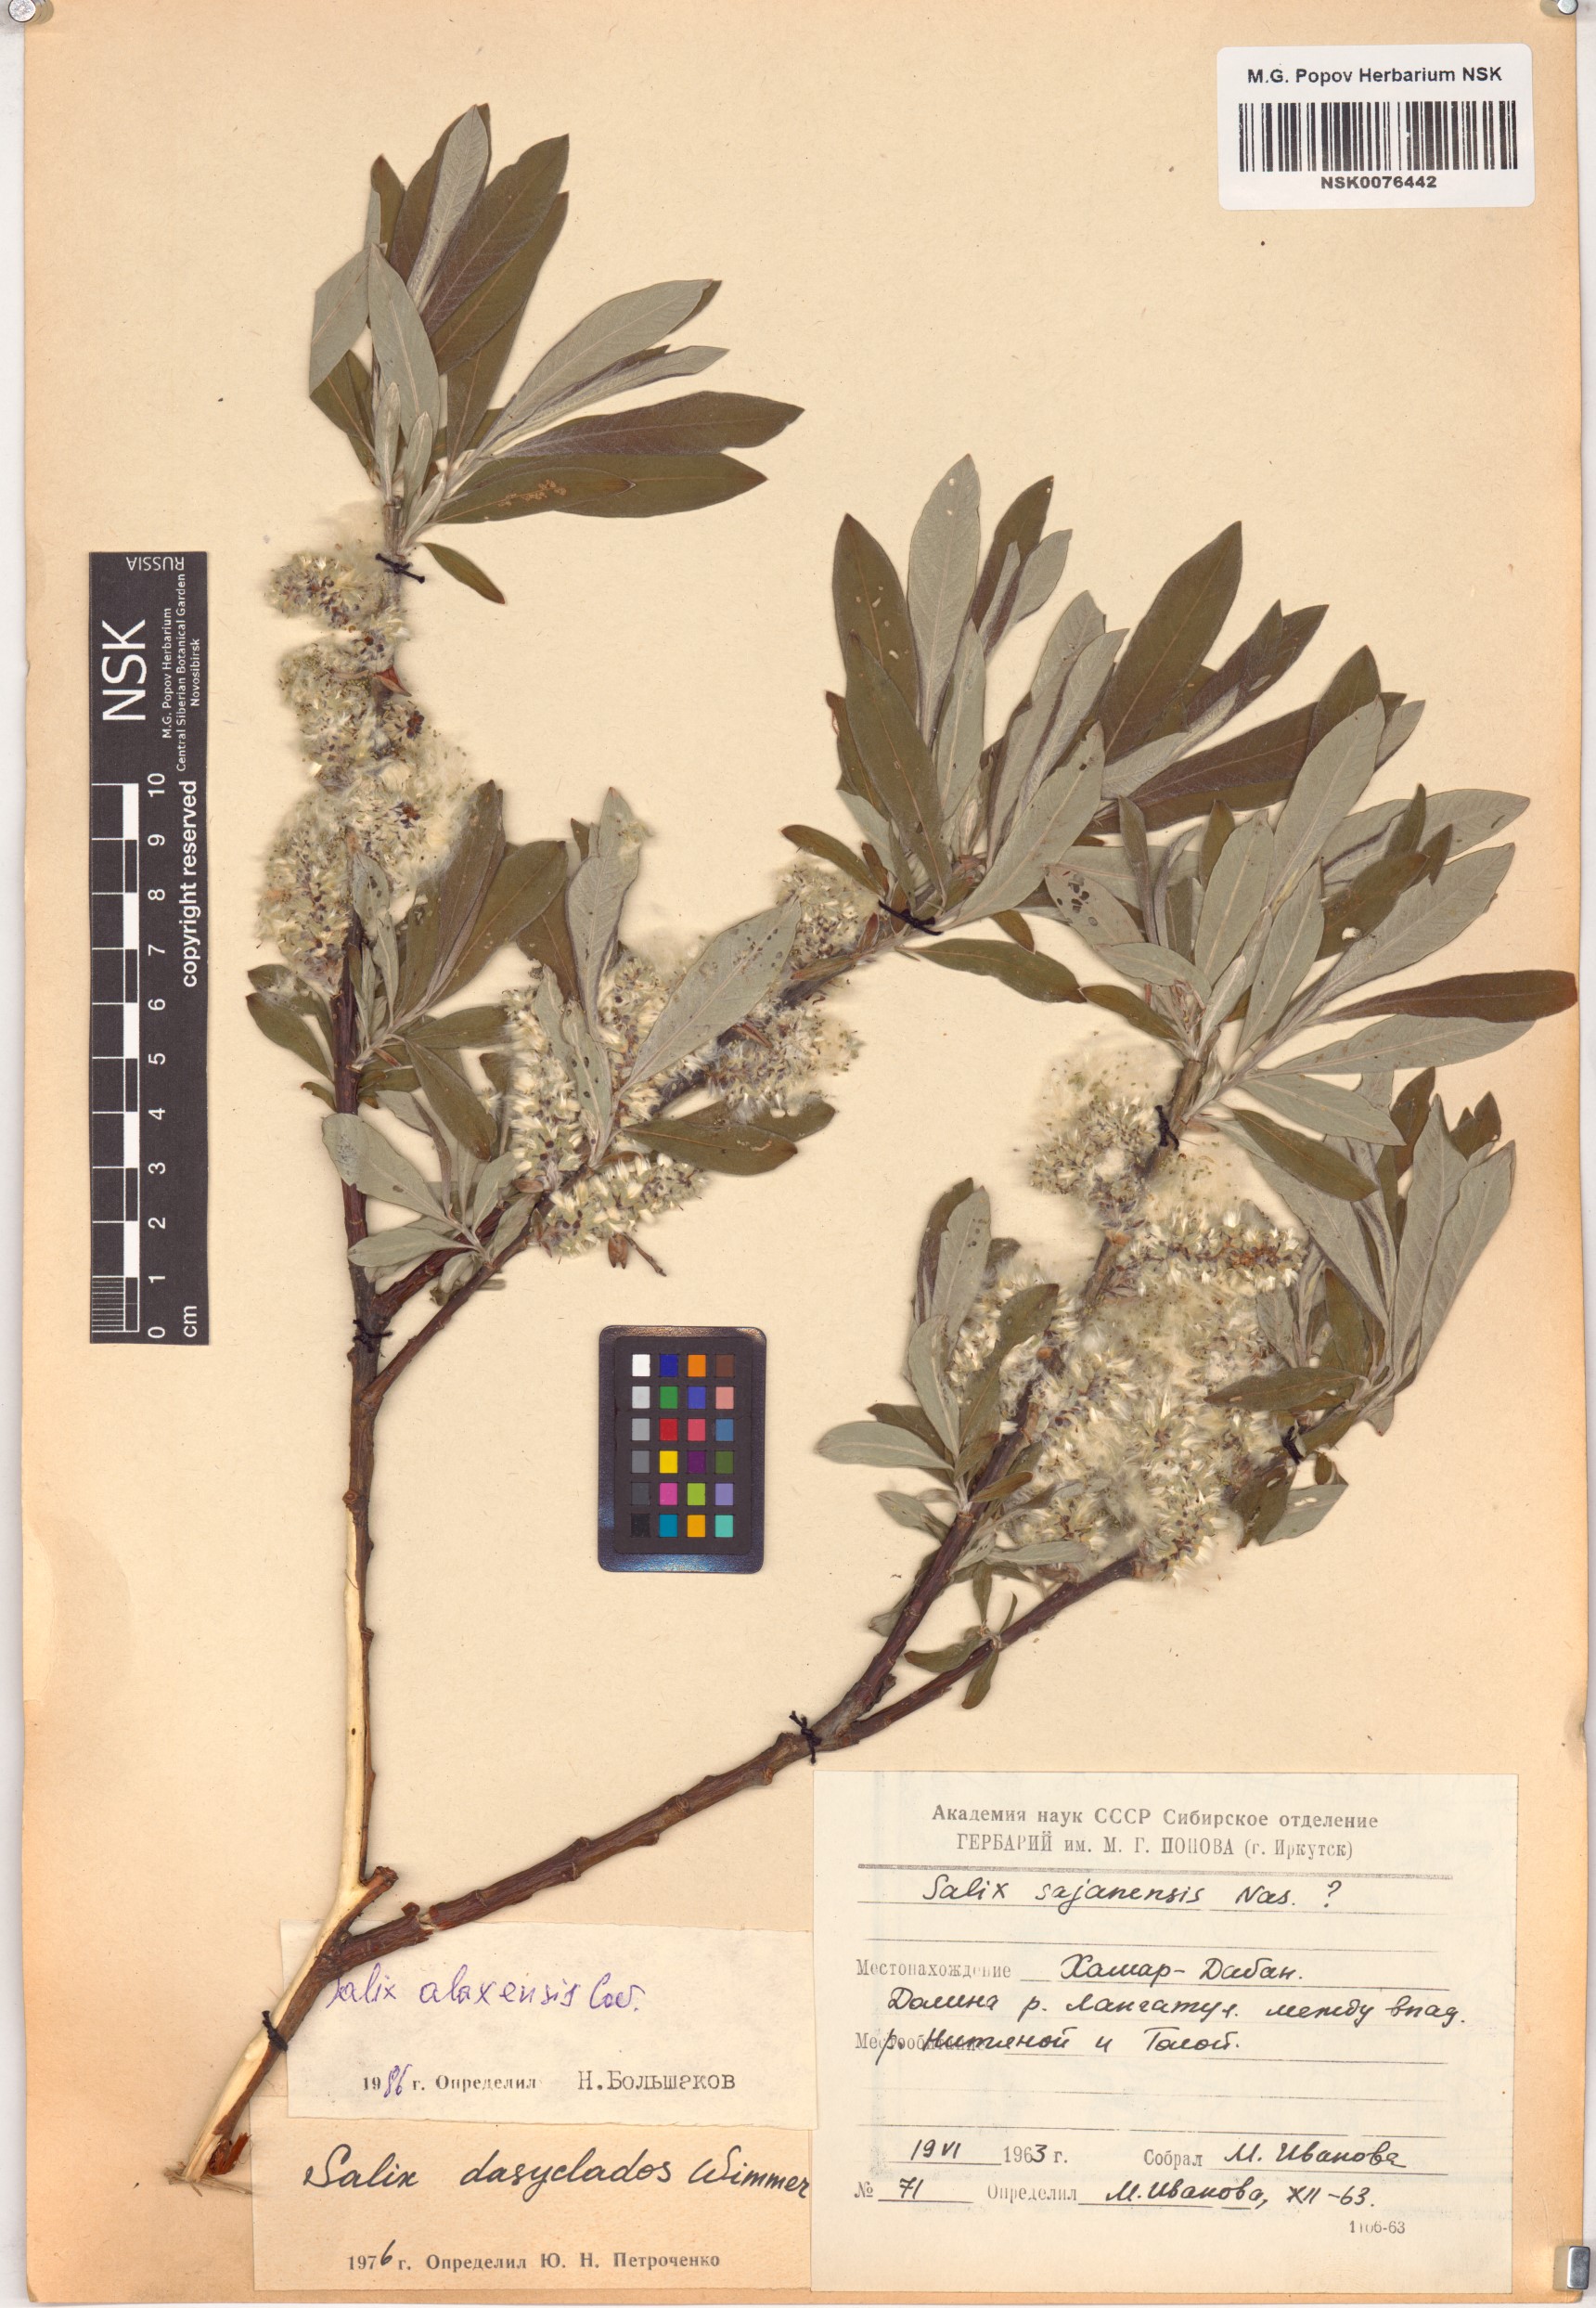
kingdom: Plantae
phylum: Tracheophyta
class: Magnoliopsida
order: Malpighiales
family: Salicaceae
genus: Salix
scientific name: Salix alaxensis
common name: Feltleaf willow
